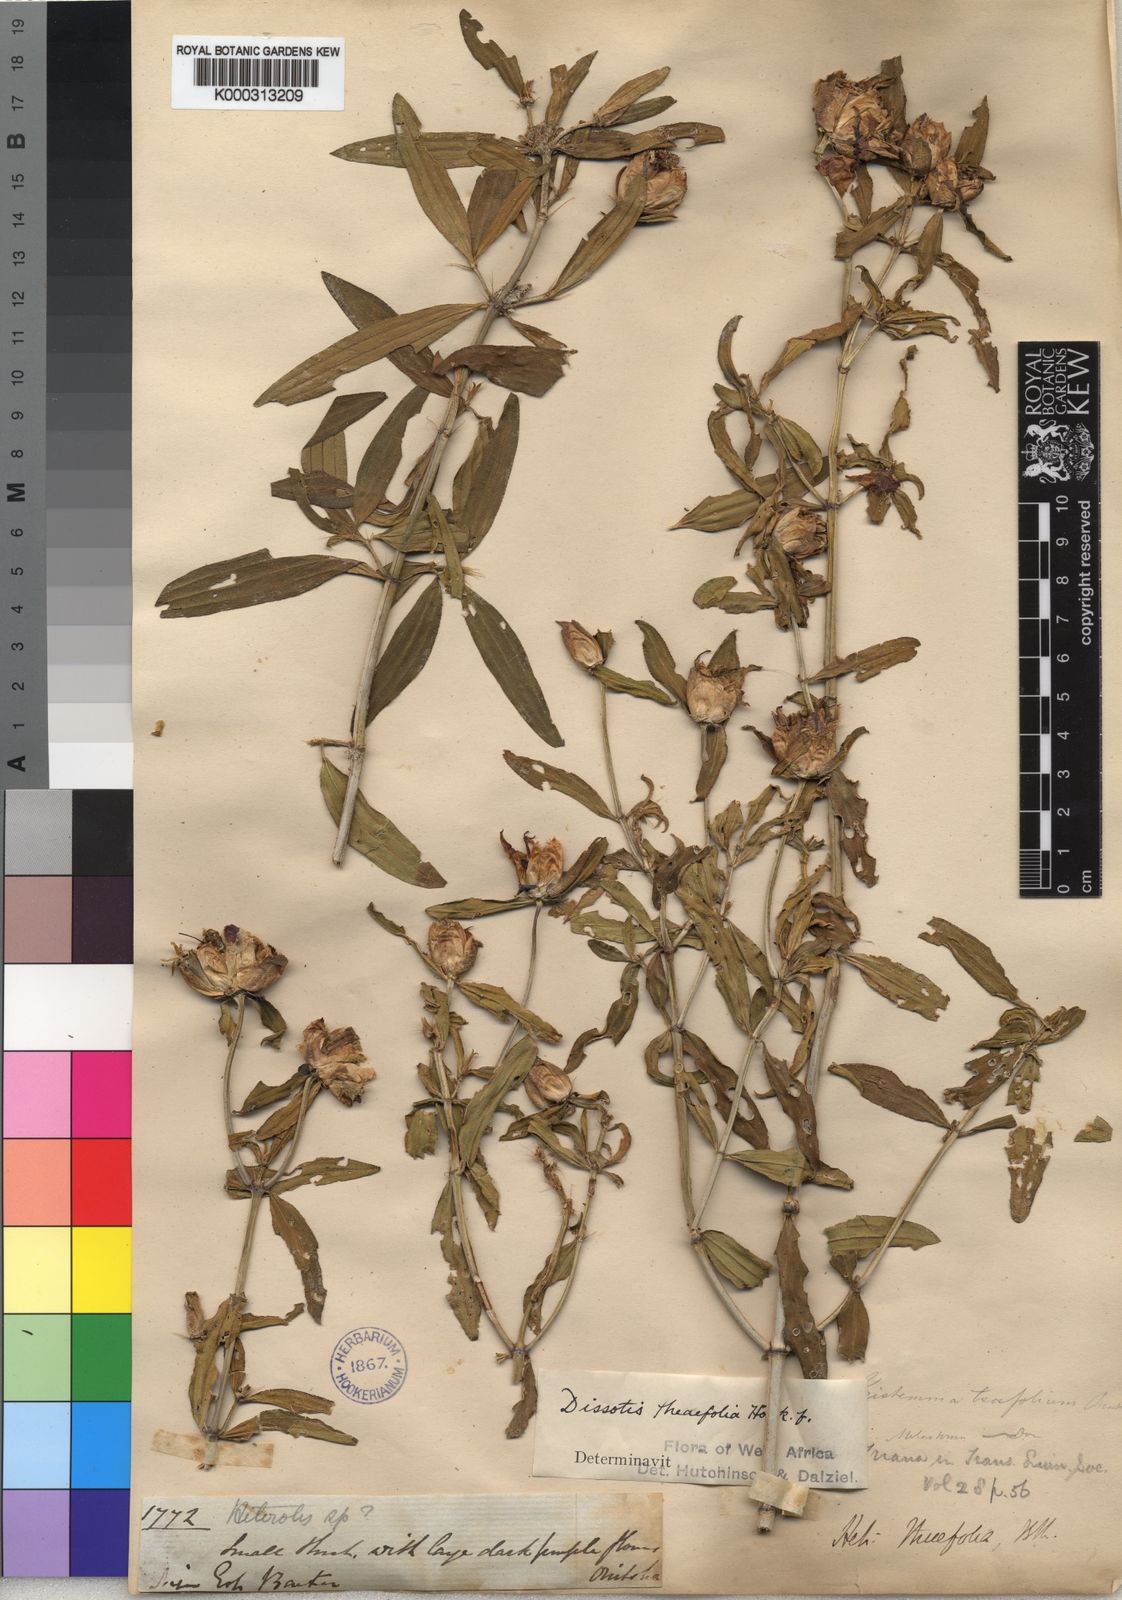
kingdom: Plantae
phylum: Tracheophyta
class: Magnoliopsida
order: Myrtales
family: Melastomataceae
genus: Melastomastrum
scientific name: Melastomastrum theifolium
